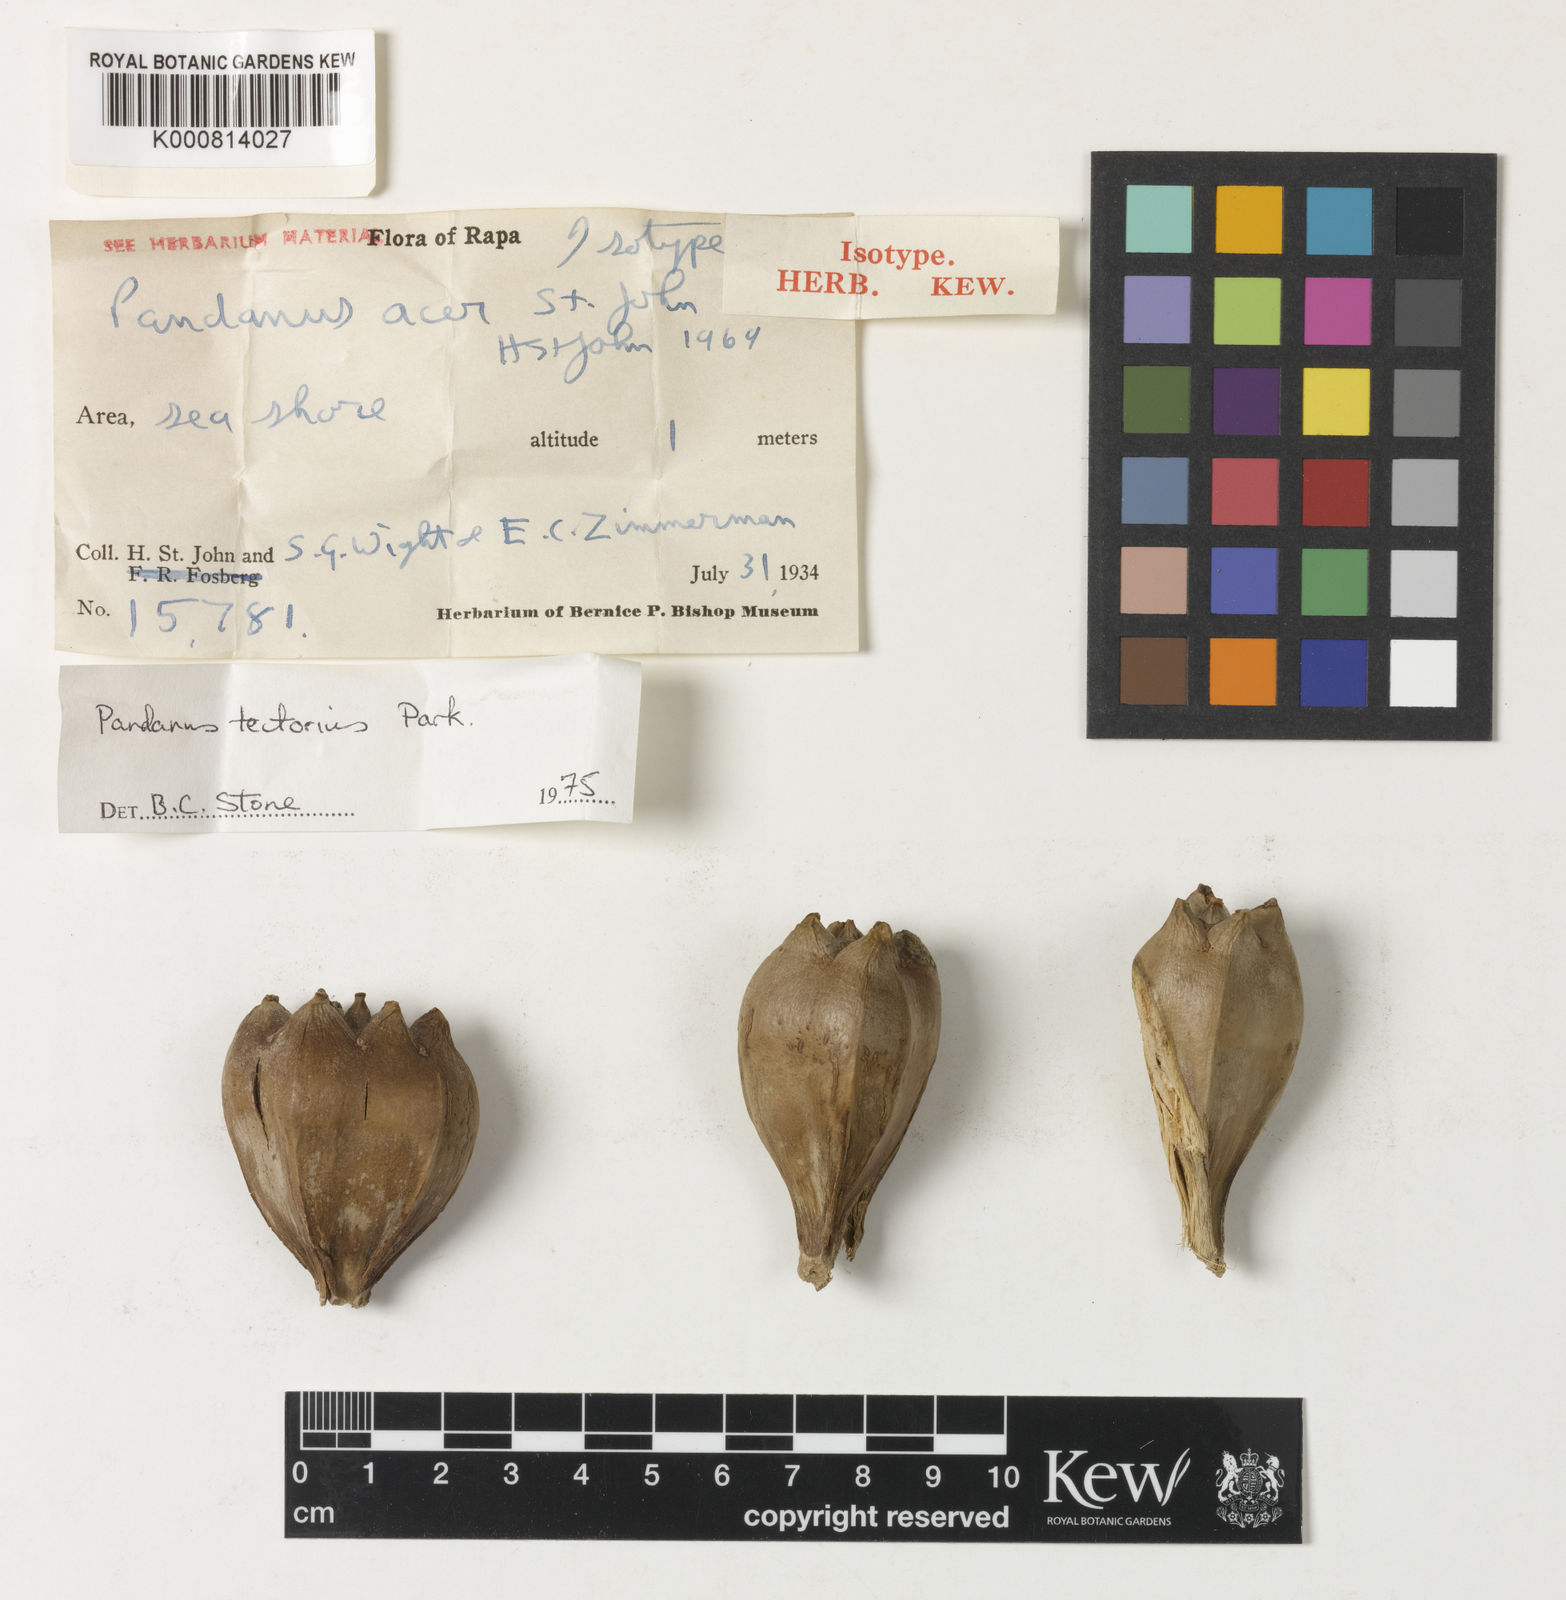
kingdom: Plantae
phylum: Tracheophyta
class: Liliopsida
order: Pandanales
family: Pandanaceae
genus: Pandanus
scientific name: Pandanus
